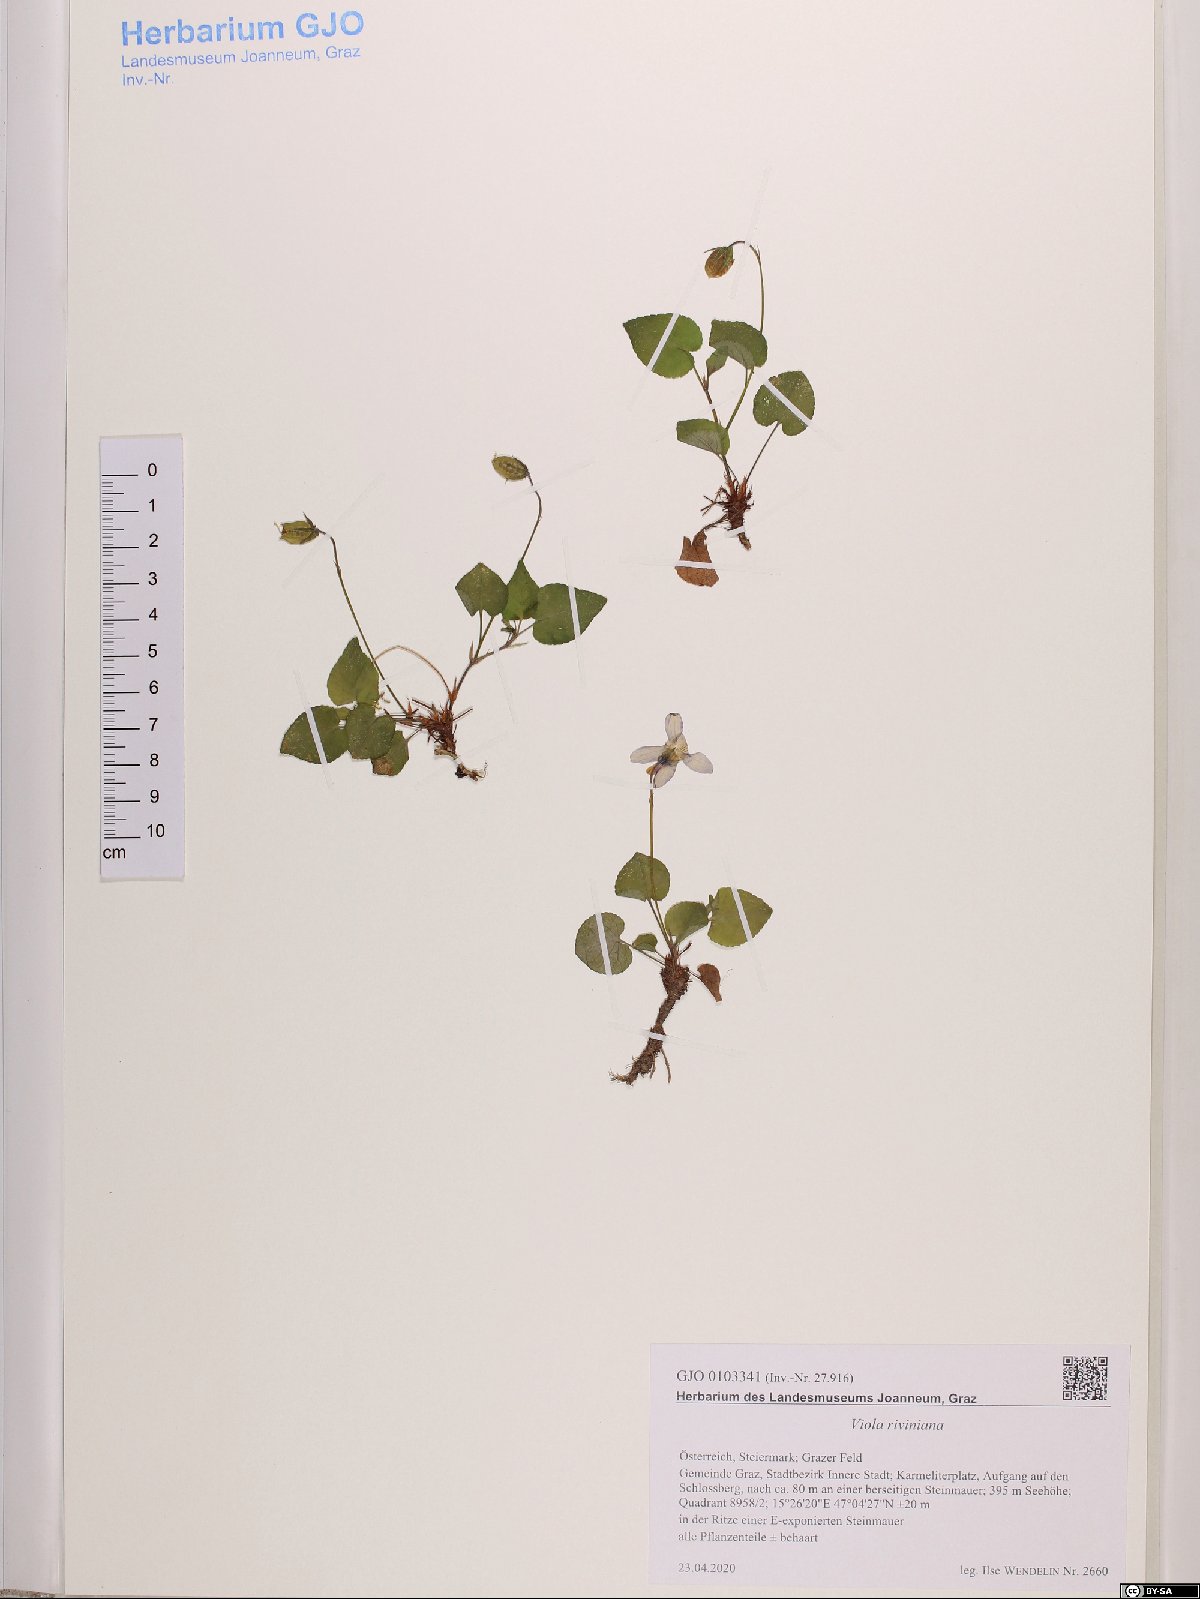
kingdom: Plantae
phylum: Tracheophyta
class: Magnoliopsida
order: Malpighiales
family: Violaceae
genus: Viola
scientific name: Viola riviniana
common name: Common dog-violet
